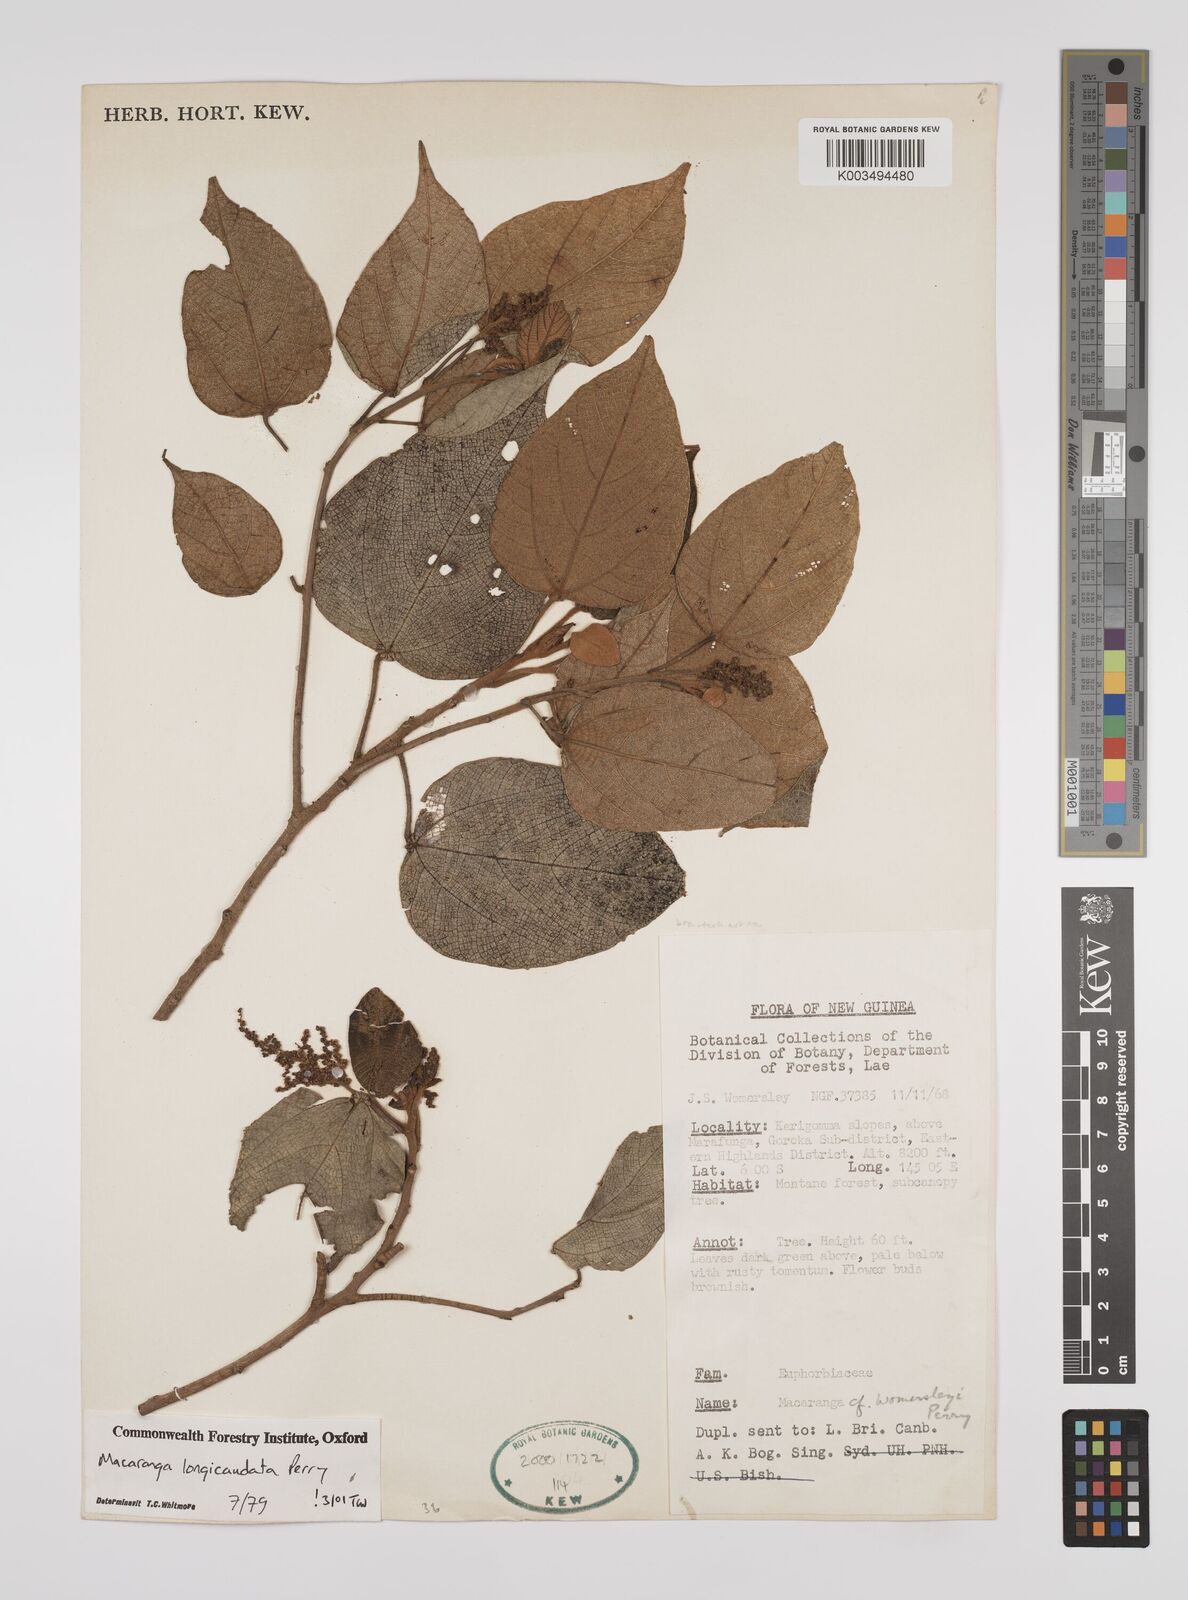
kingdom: Plantae
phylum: Tracheophyta
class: Magnoliopsida
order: Malpighiales
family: Euphorbiaceae
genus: Macaranga
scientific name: Macaranga longicaudata
